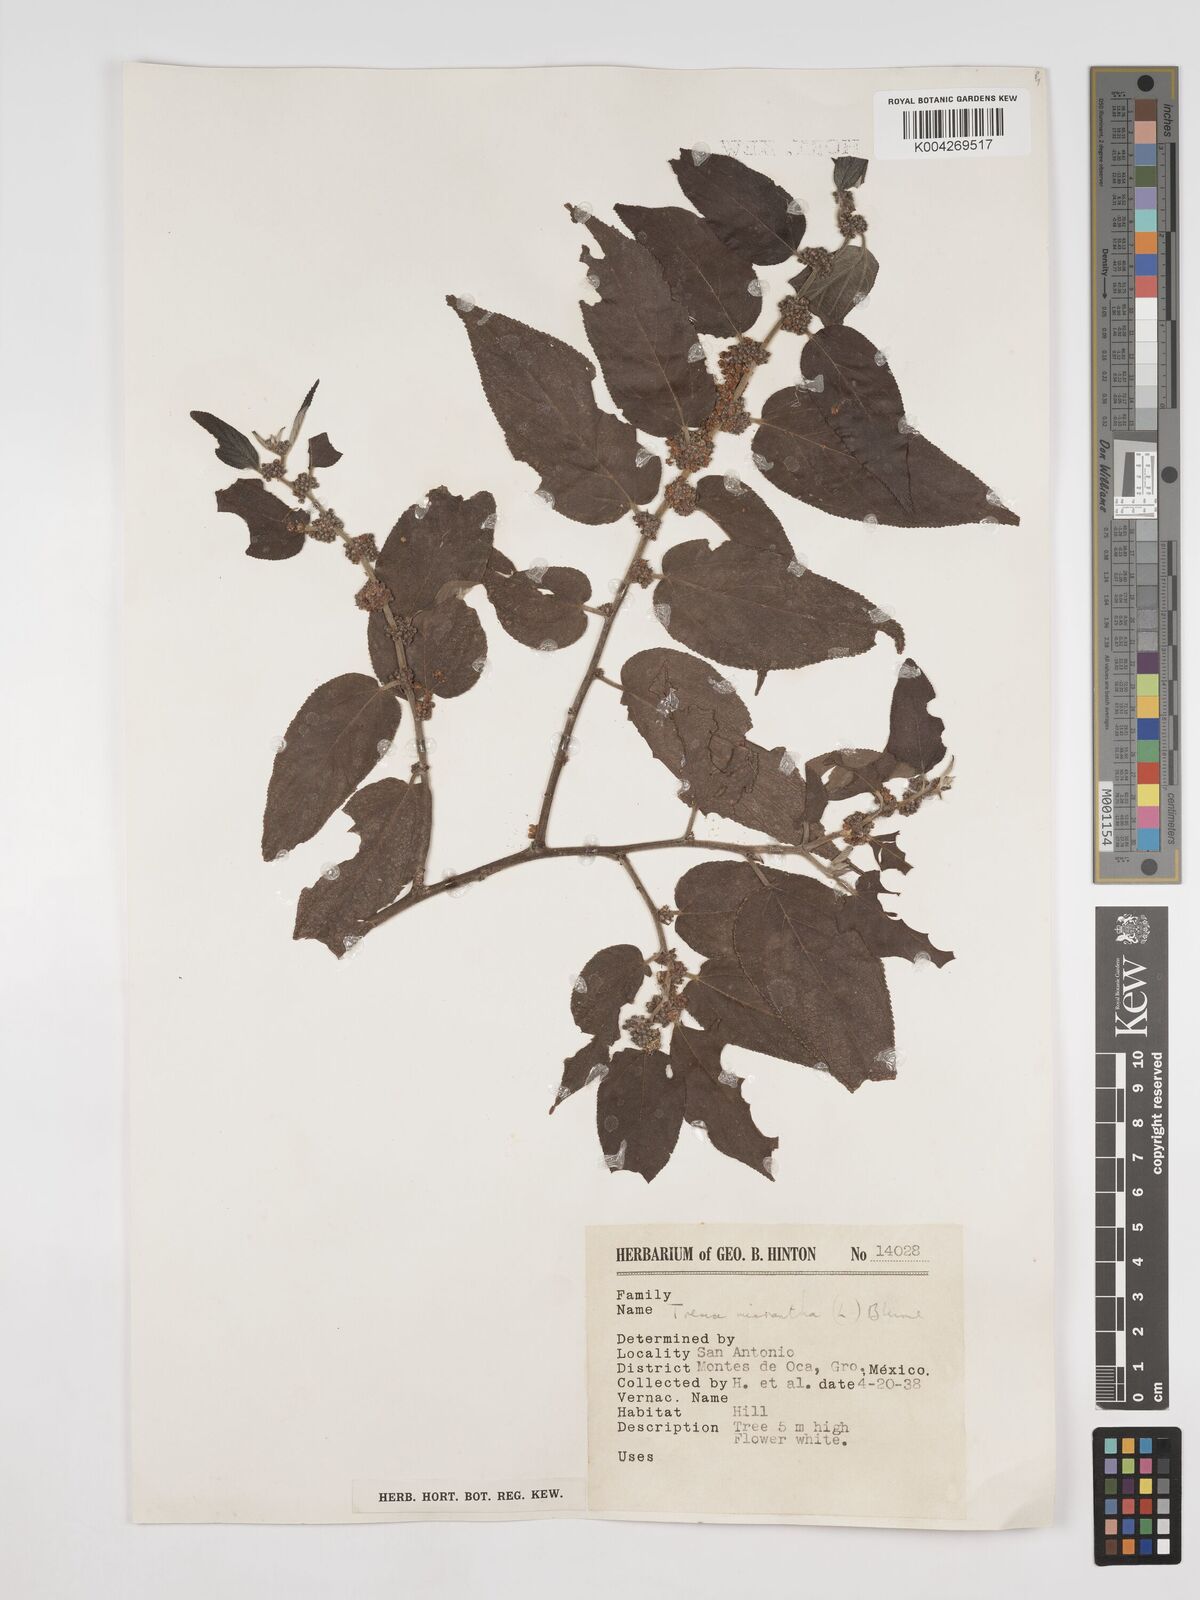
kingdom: Plantae
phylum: Tracheophyta
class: Magnoliopsida
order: Rosales
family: Cannabaceae
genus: Trema
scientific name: Trema micranthum
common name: Jamaican nettletree
